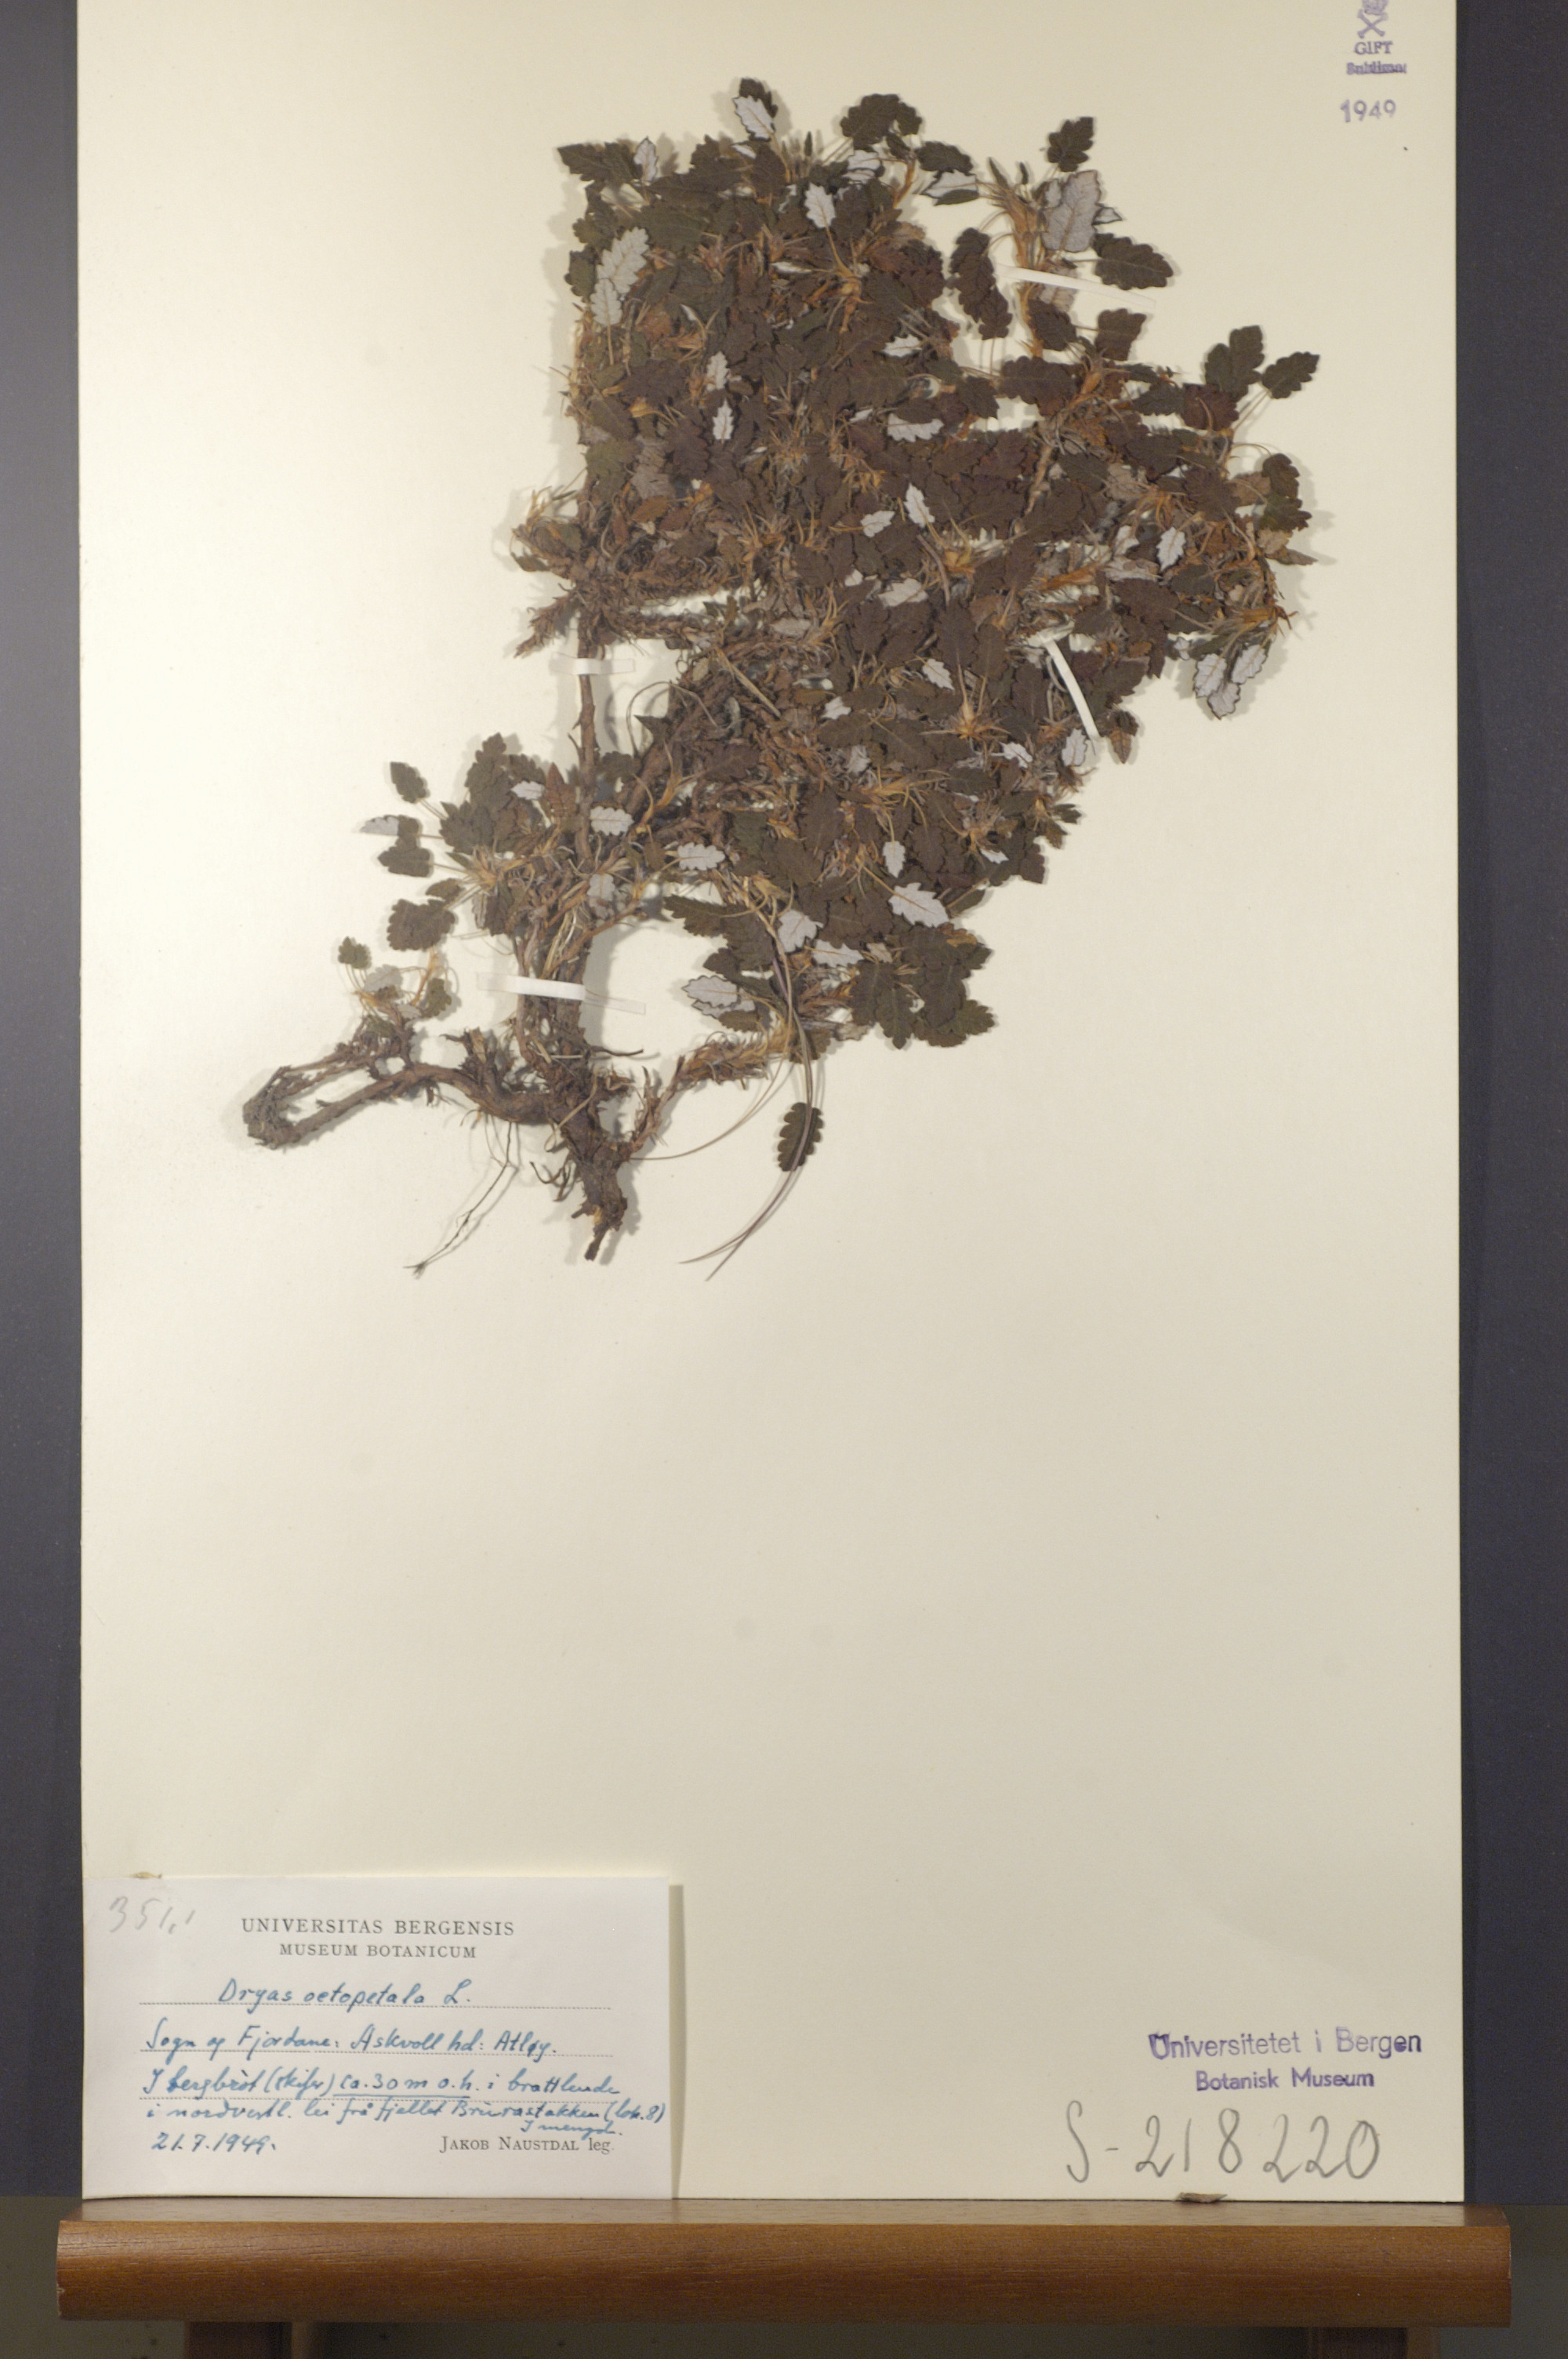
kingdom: Plantae
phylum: Tracheophyta
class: Magnoliopsida
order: Rosales
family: Rosaceae
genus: Dryas
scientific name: Dryas octopetala
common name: Eight-petal mountain-avens
